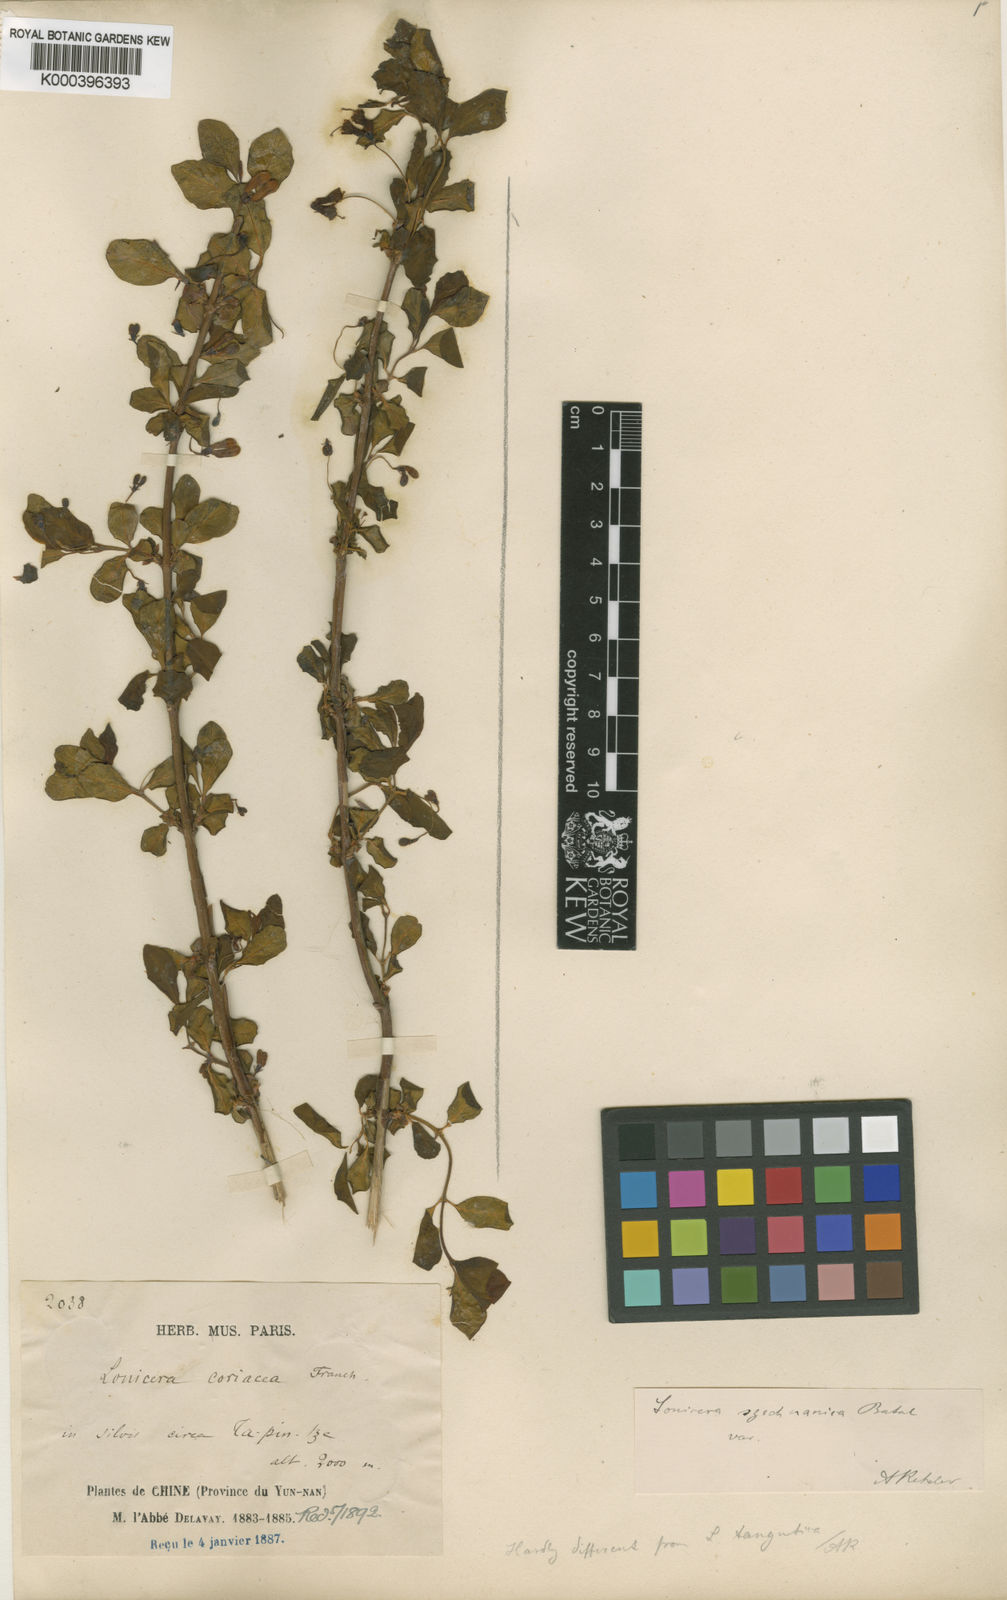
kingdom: Plantae
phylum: Tracheophyta
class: Magnoliopsida
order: Dipsacales
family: Caprifoliaceae
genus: Lonicera
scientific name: Lonicera tangutica
